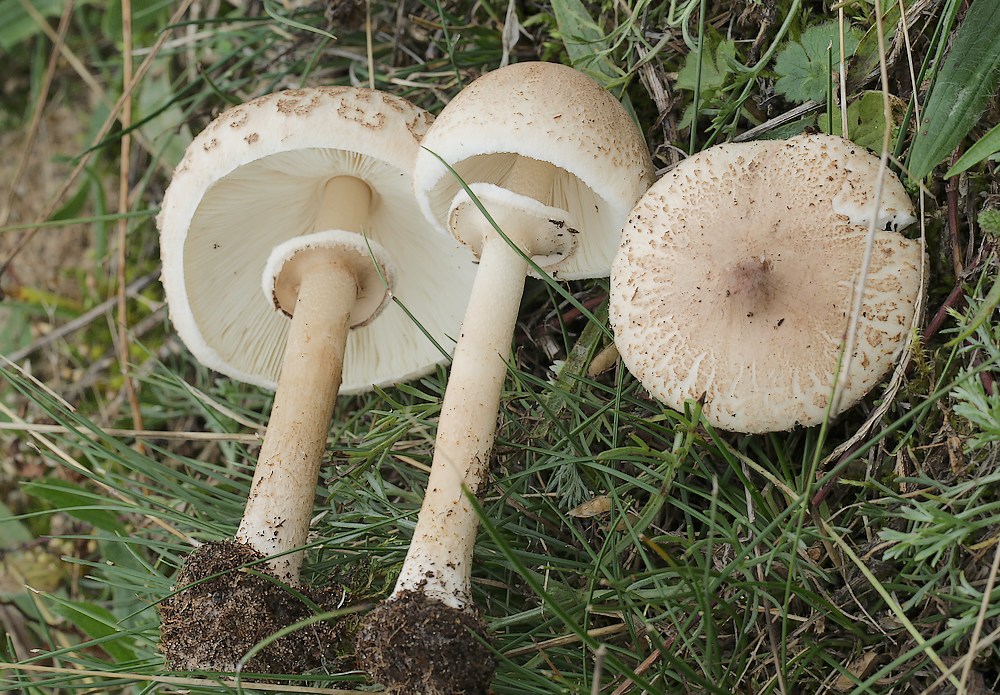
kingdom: Fungi
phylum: Basidiomycota
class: Agaricomycetes
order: Agaricales
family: Agaricaceae
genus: Macrolepiota
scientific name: Macrolepiota mastoidea
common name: puklet kæmpeparasolhat
